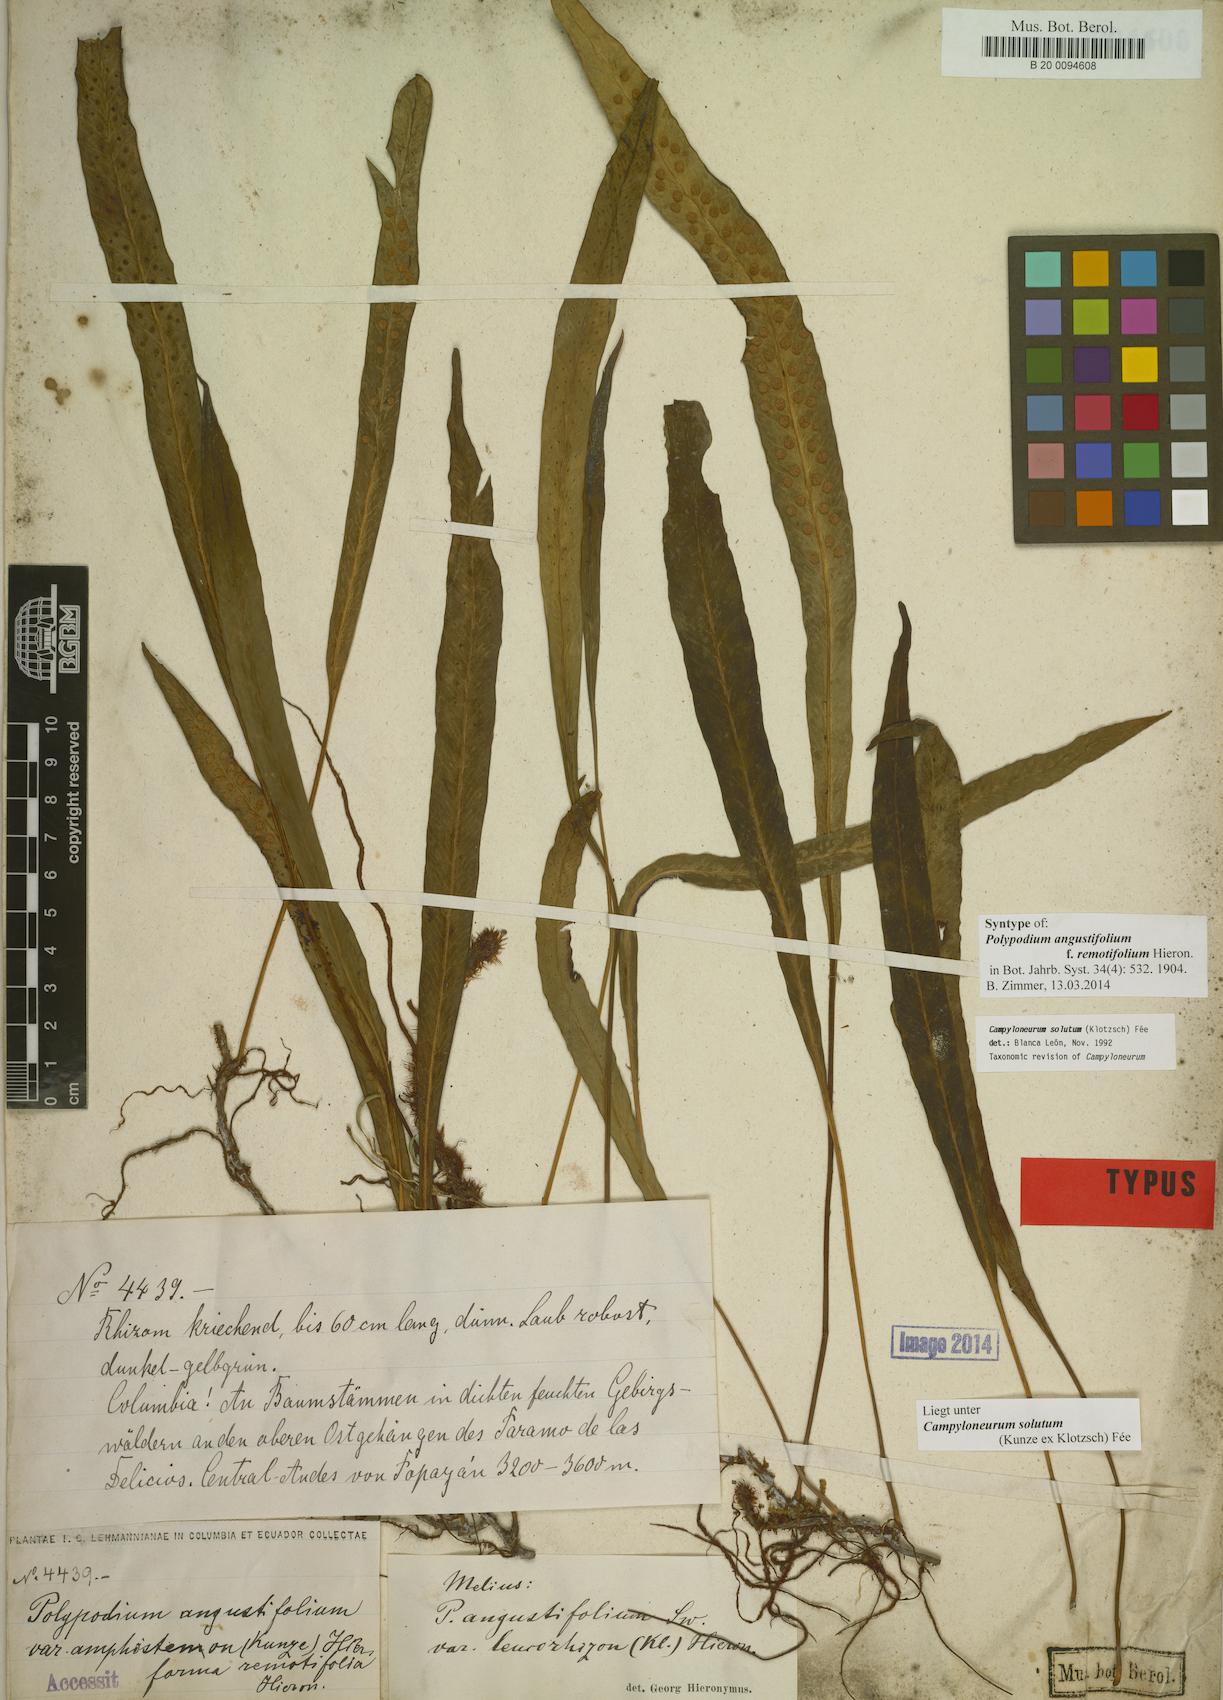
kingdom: Plantae
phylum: Tracheophyta
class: Polypodiopsida
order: Polypodiales
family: Polypodiaceae
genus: Campyloneurum
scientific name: Campyloneurum solutum
